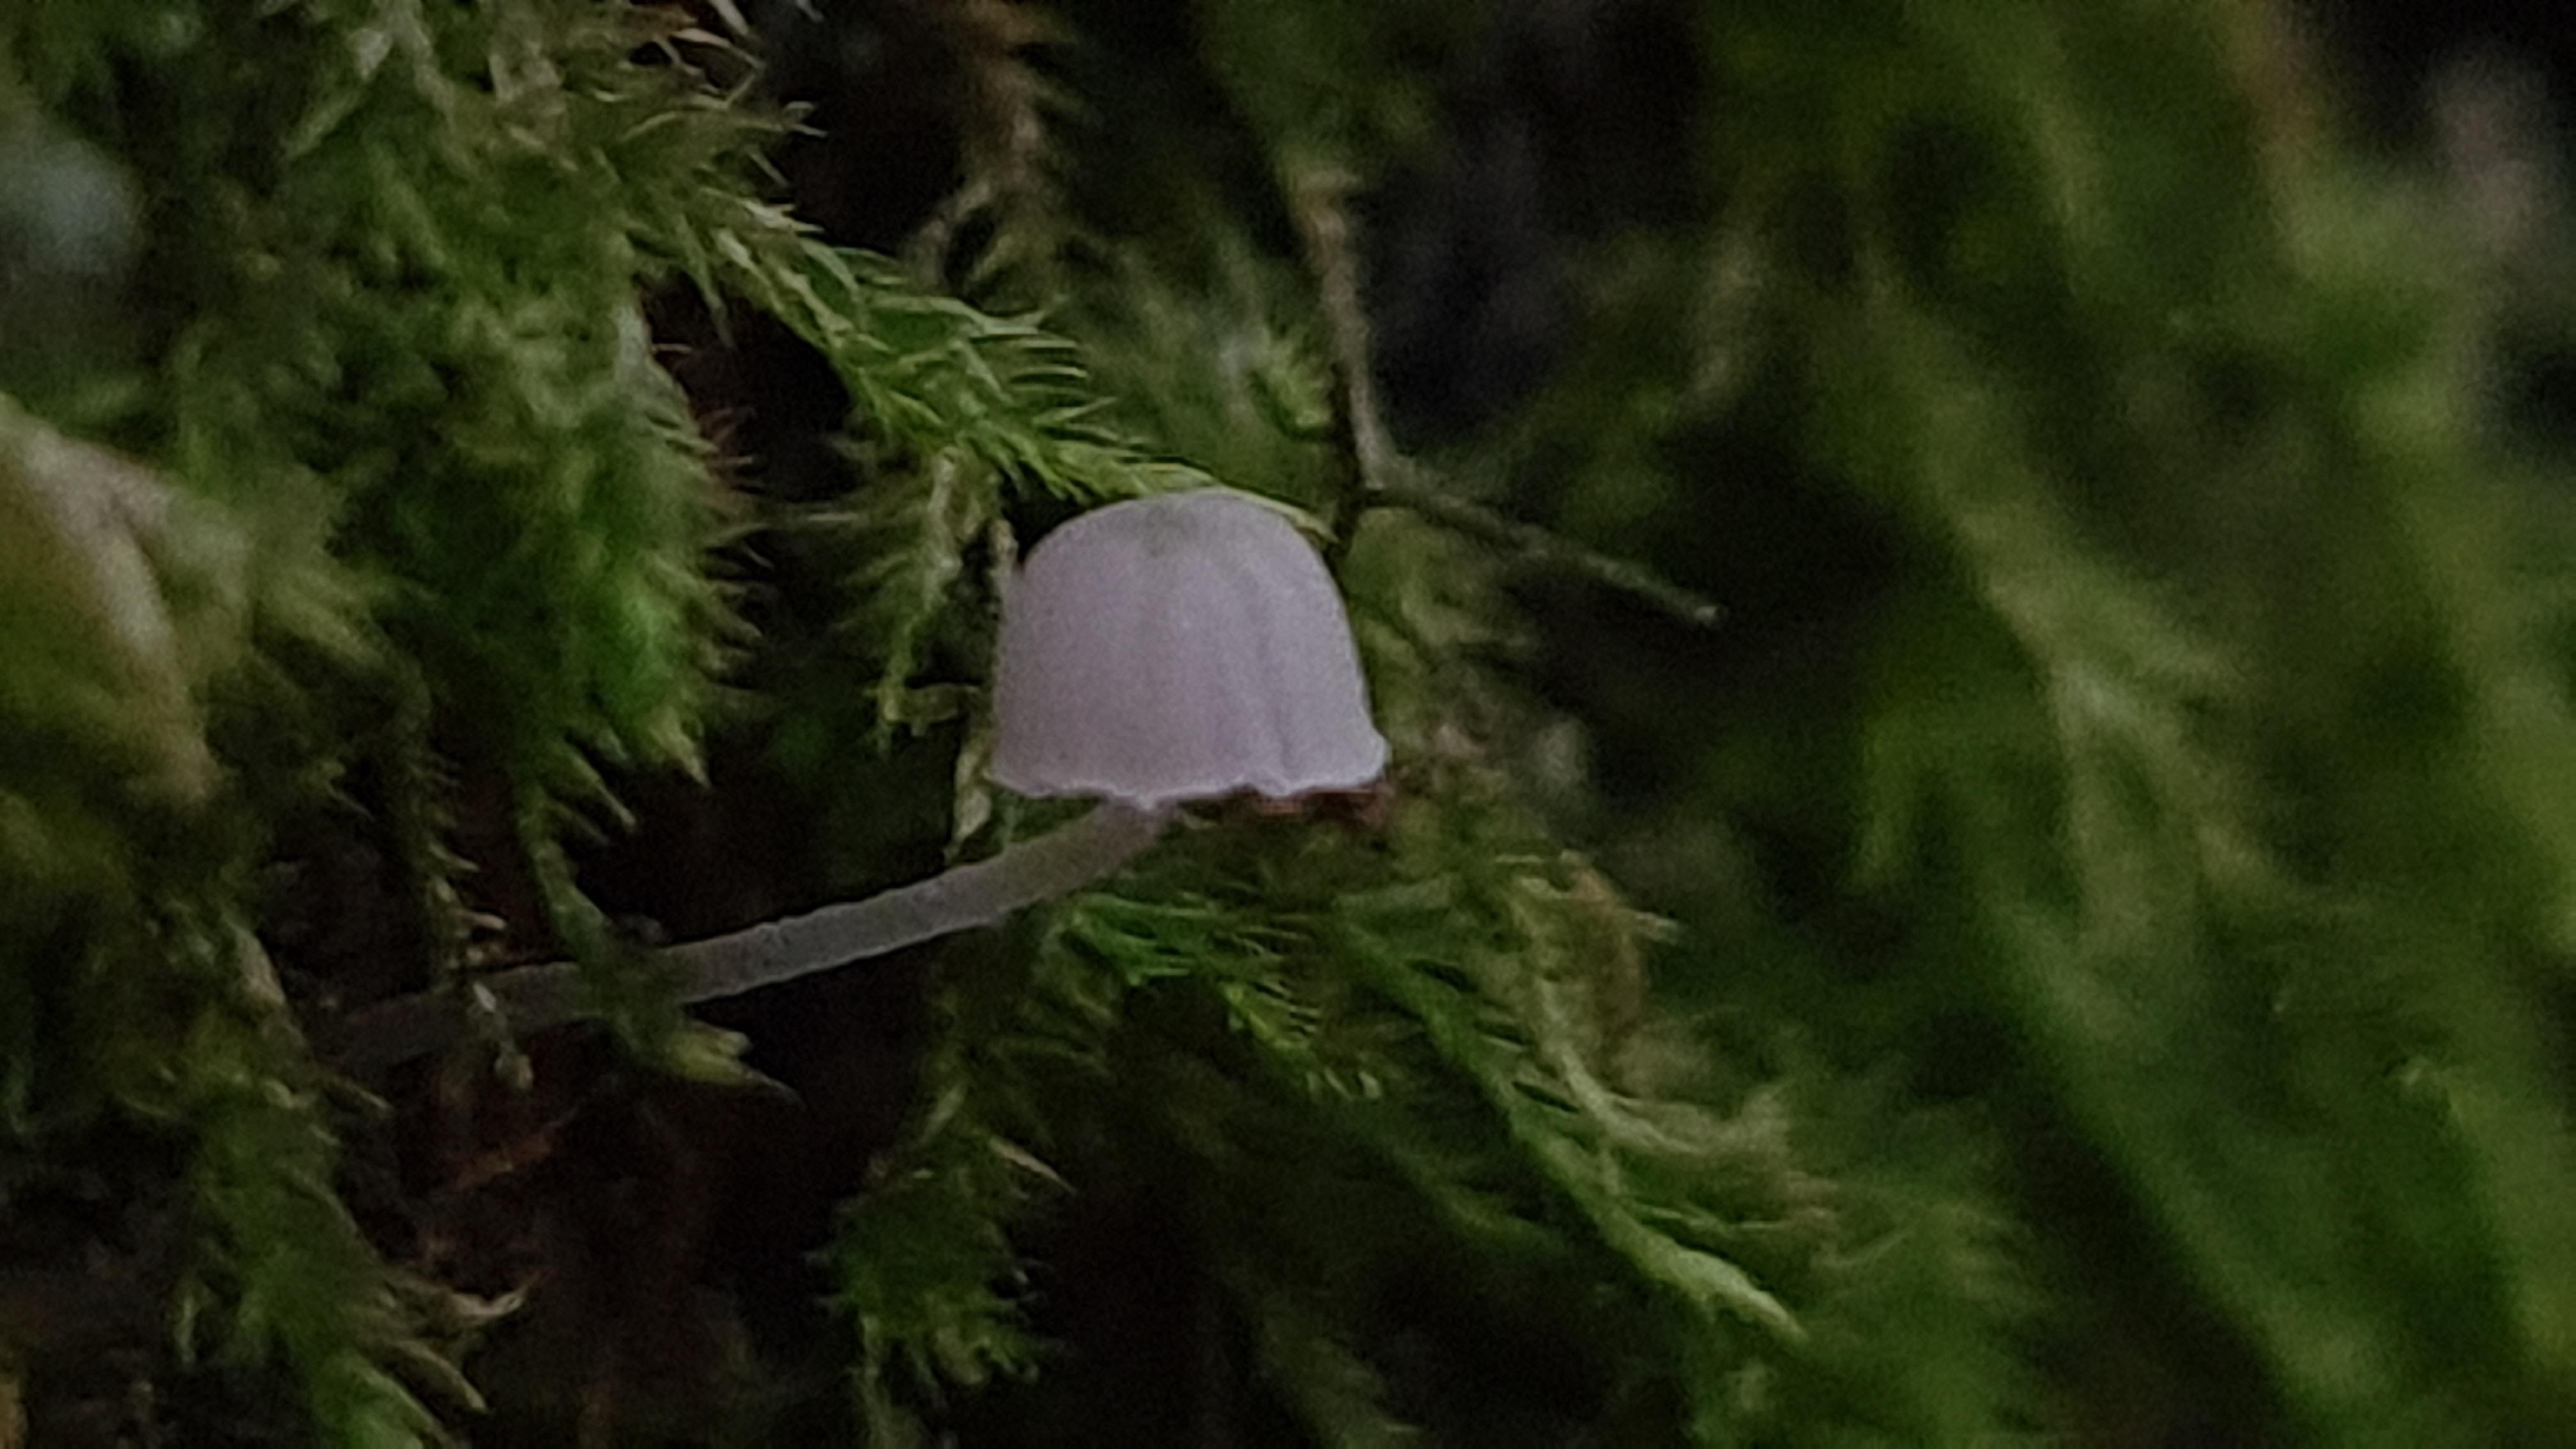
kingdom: Fungi
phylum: Basidiomycota
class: Agaricomycetes
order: Agaricales
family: Mycenaceae
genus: Mycena
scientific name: Mycena pseudocorticola
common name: gråblå bark-huesvamp
